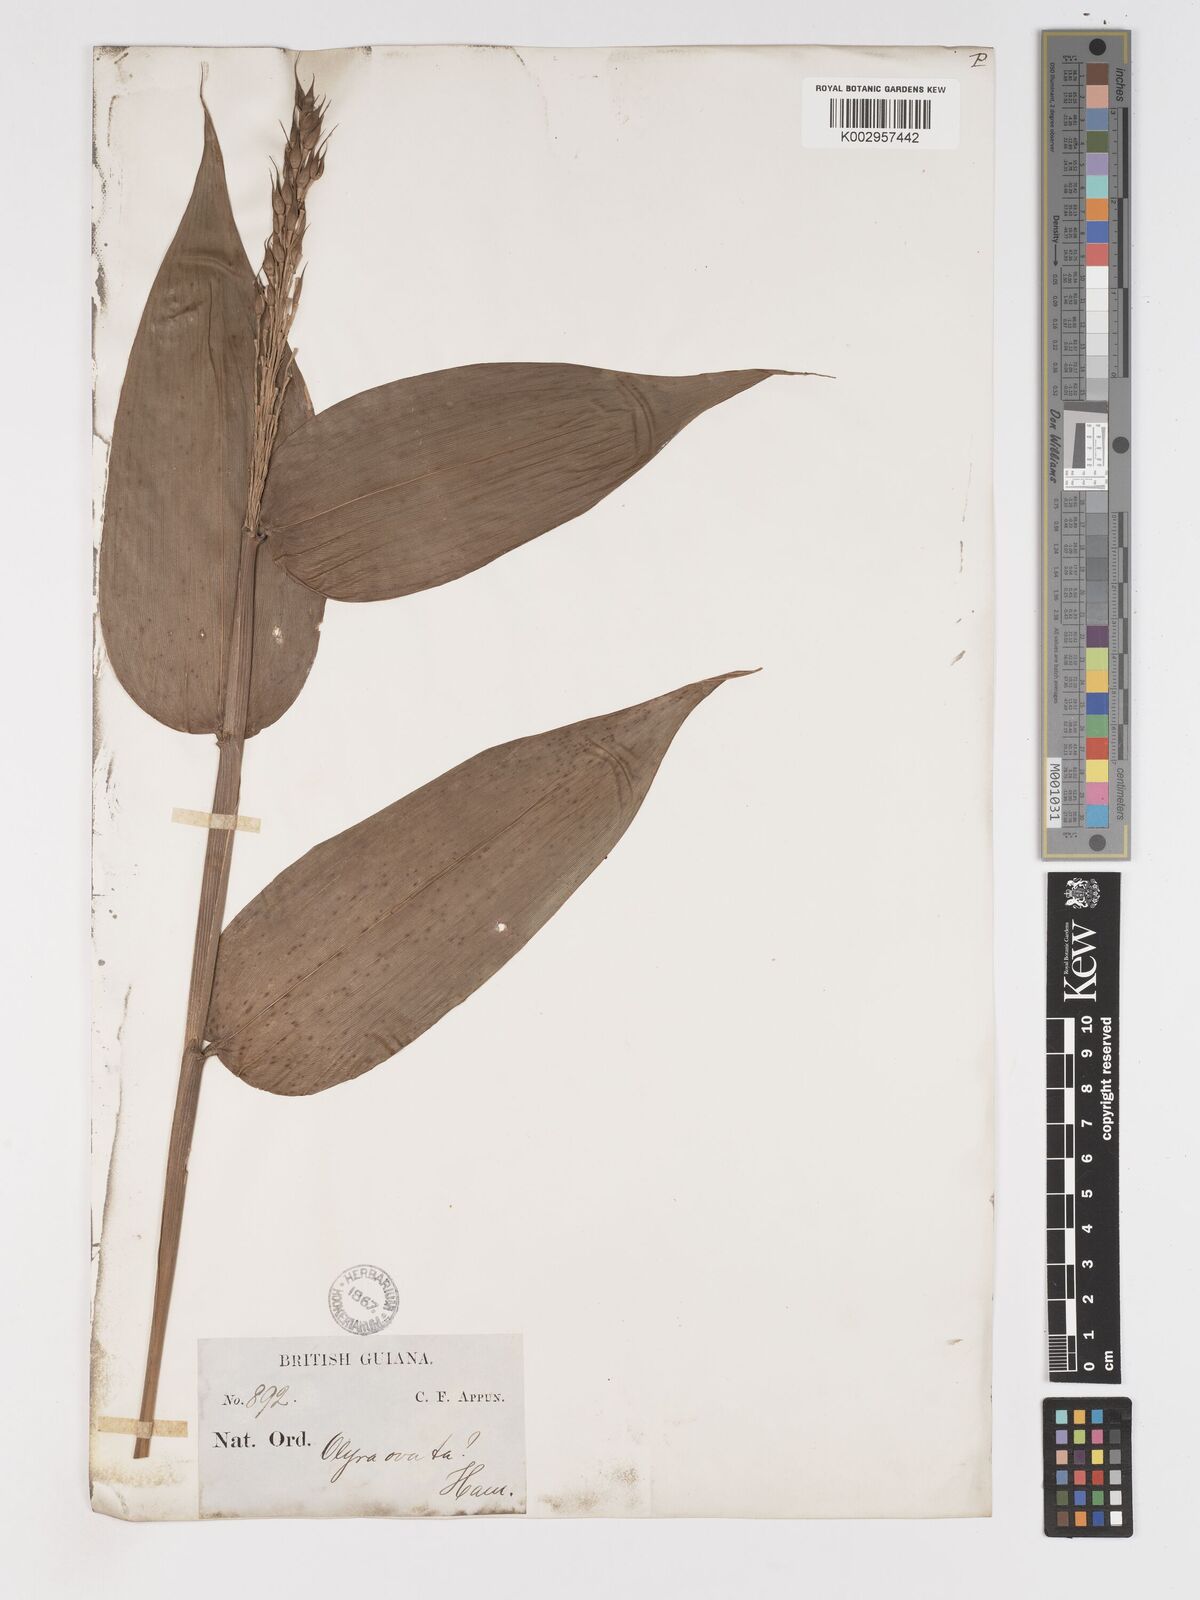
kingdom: Plantae
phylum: Tracheophyta
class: Liliopsida
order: Poales
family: Poaceae
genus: Olyra
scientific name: Olyra latifolia
